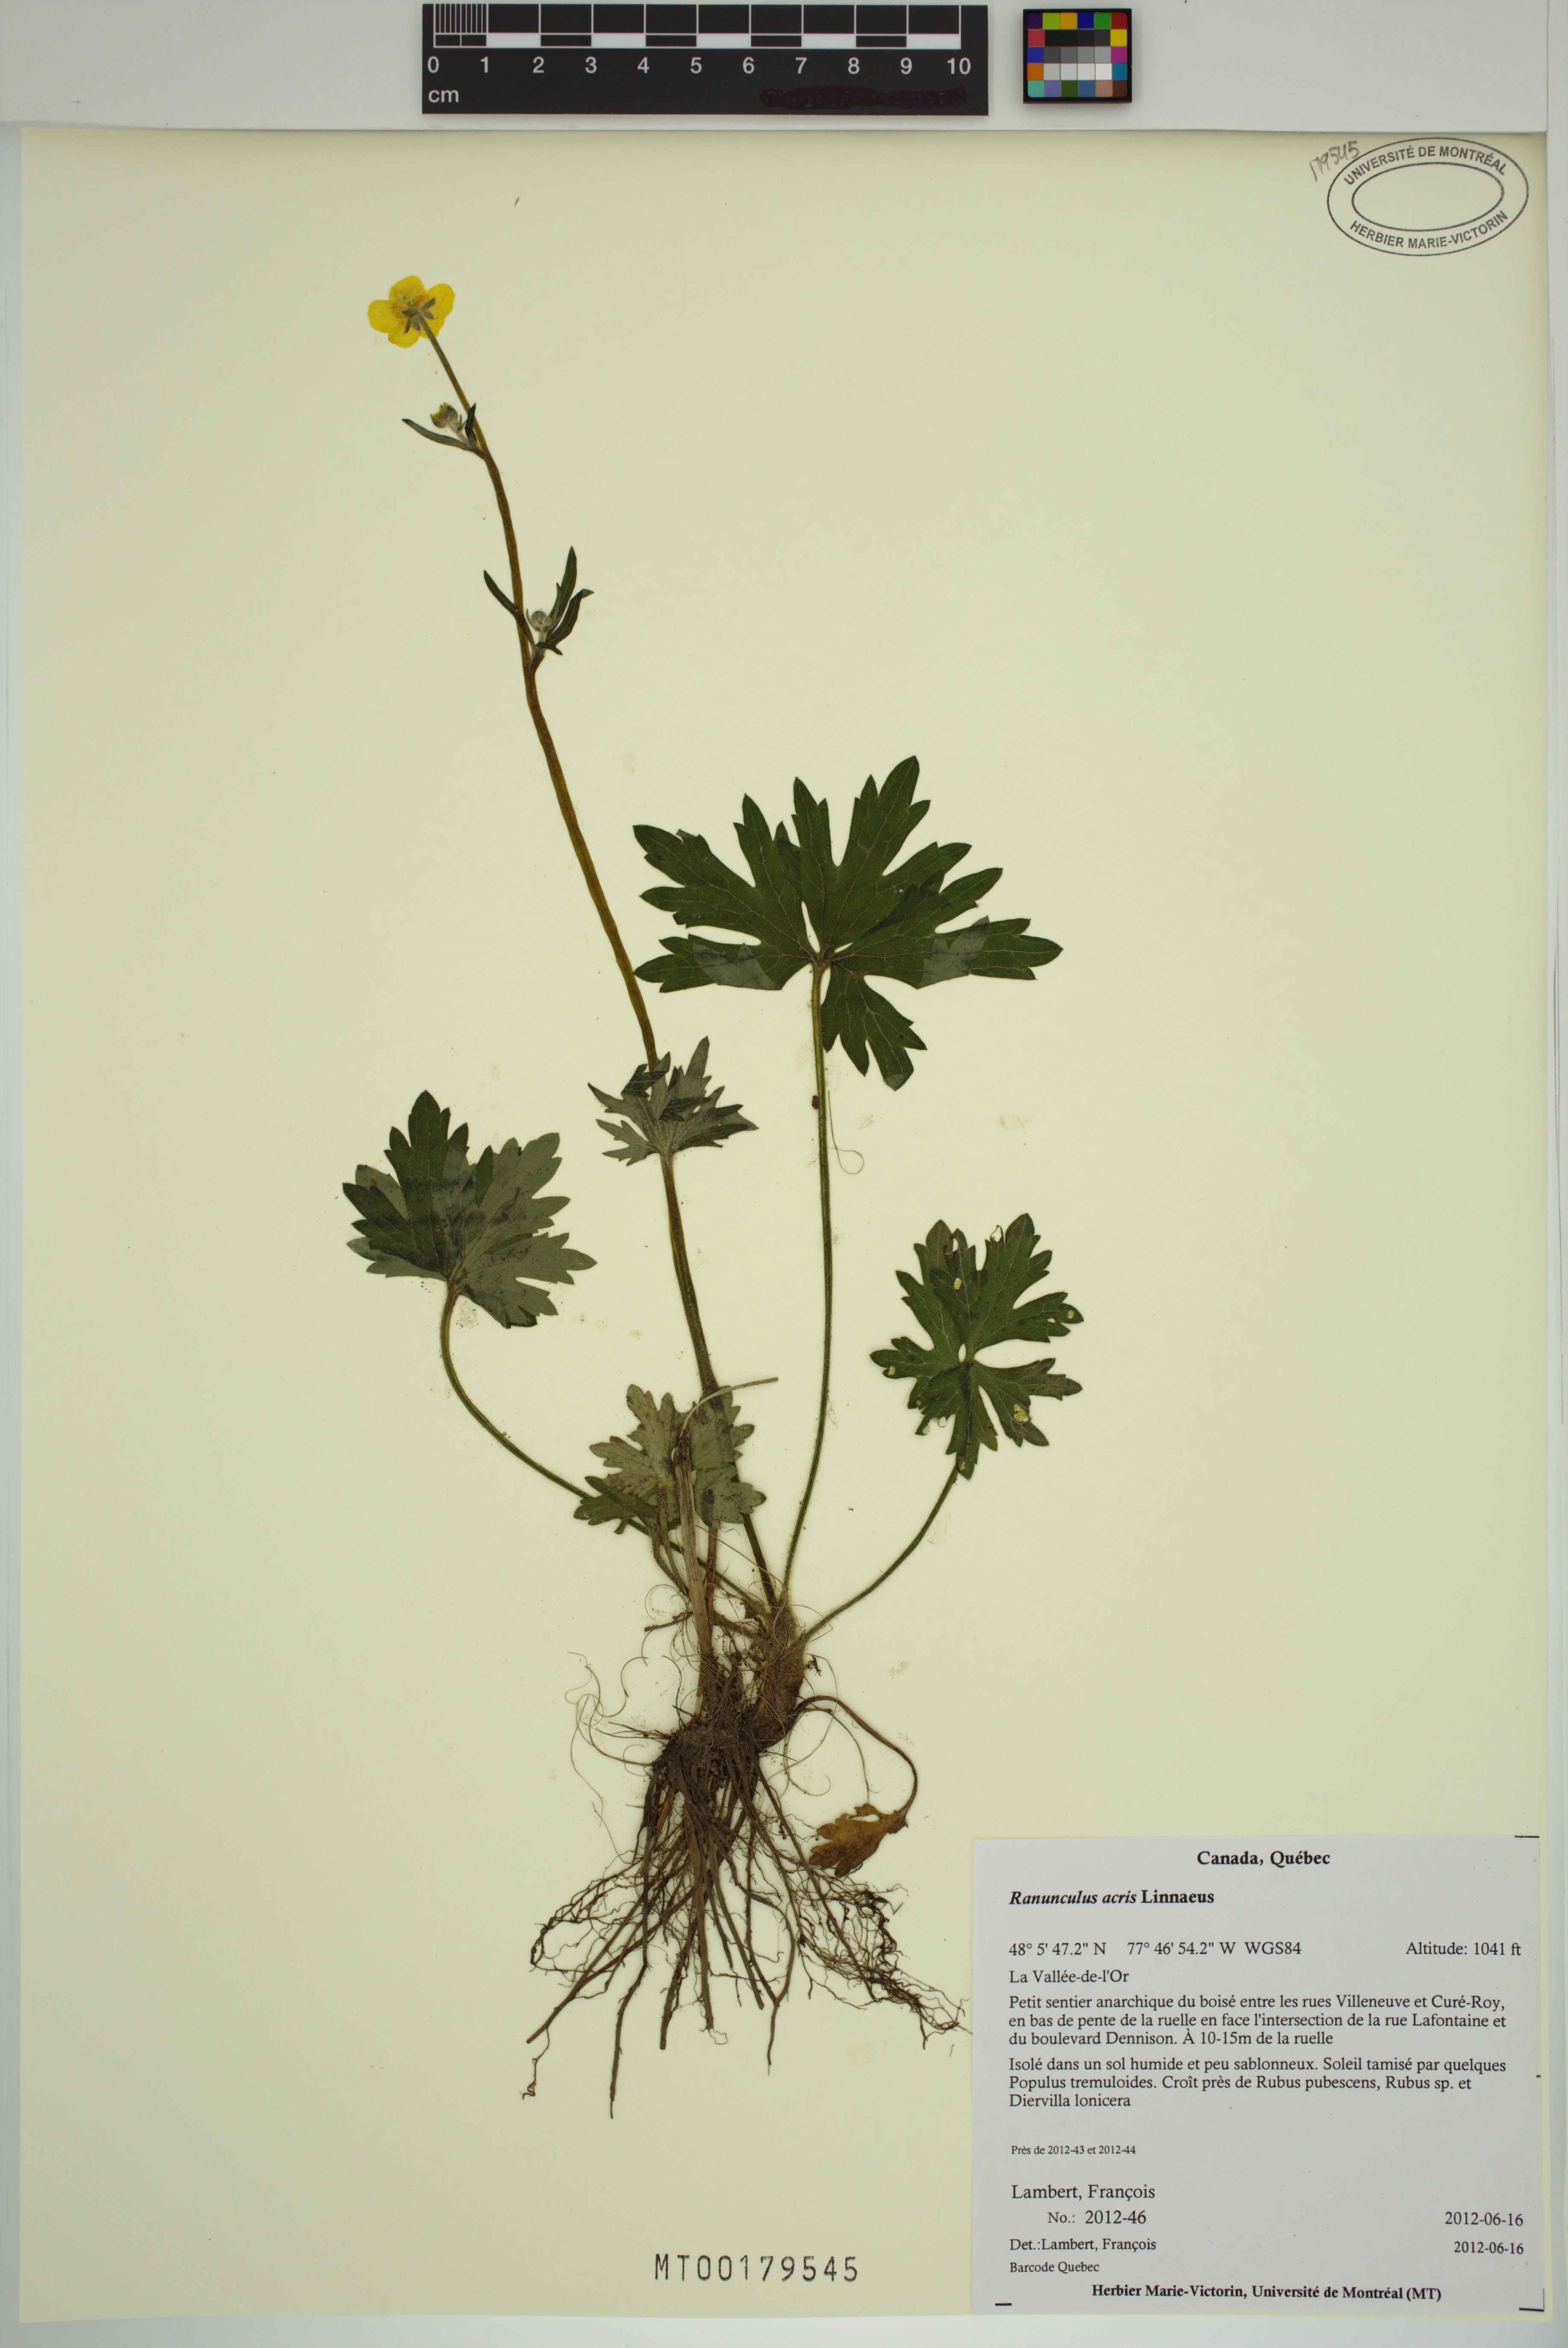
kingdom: Plantae
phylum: Tracheophyta
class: Magnoliopsida
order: Ranunculales
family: Ranunculaceae
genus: Ranunculus
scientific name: Ranunculus acris
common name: Meadow buttercup
